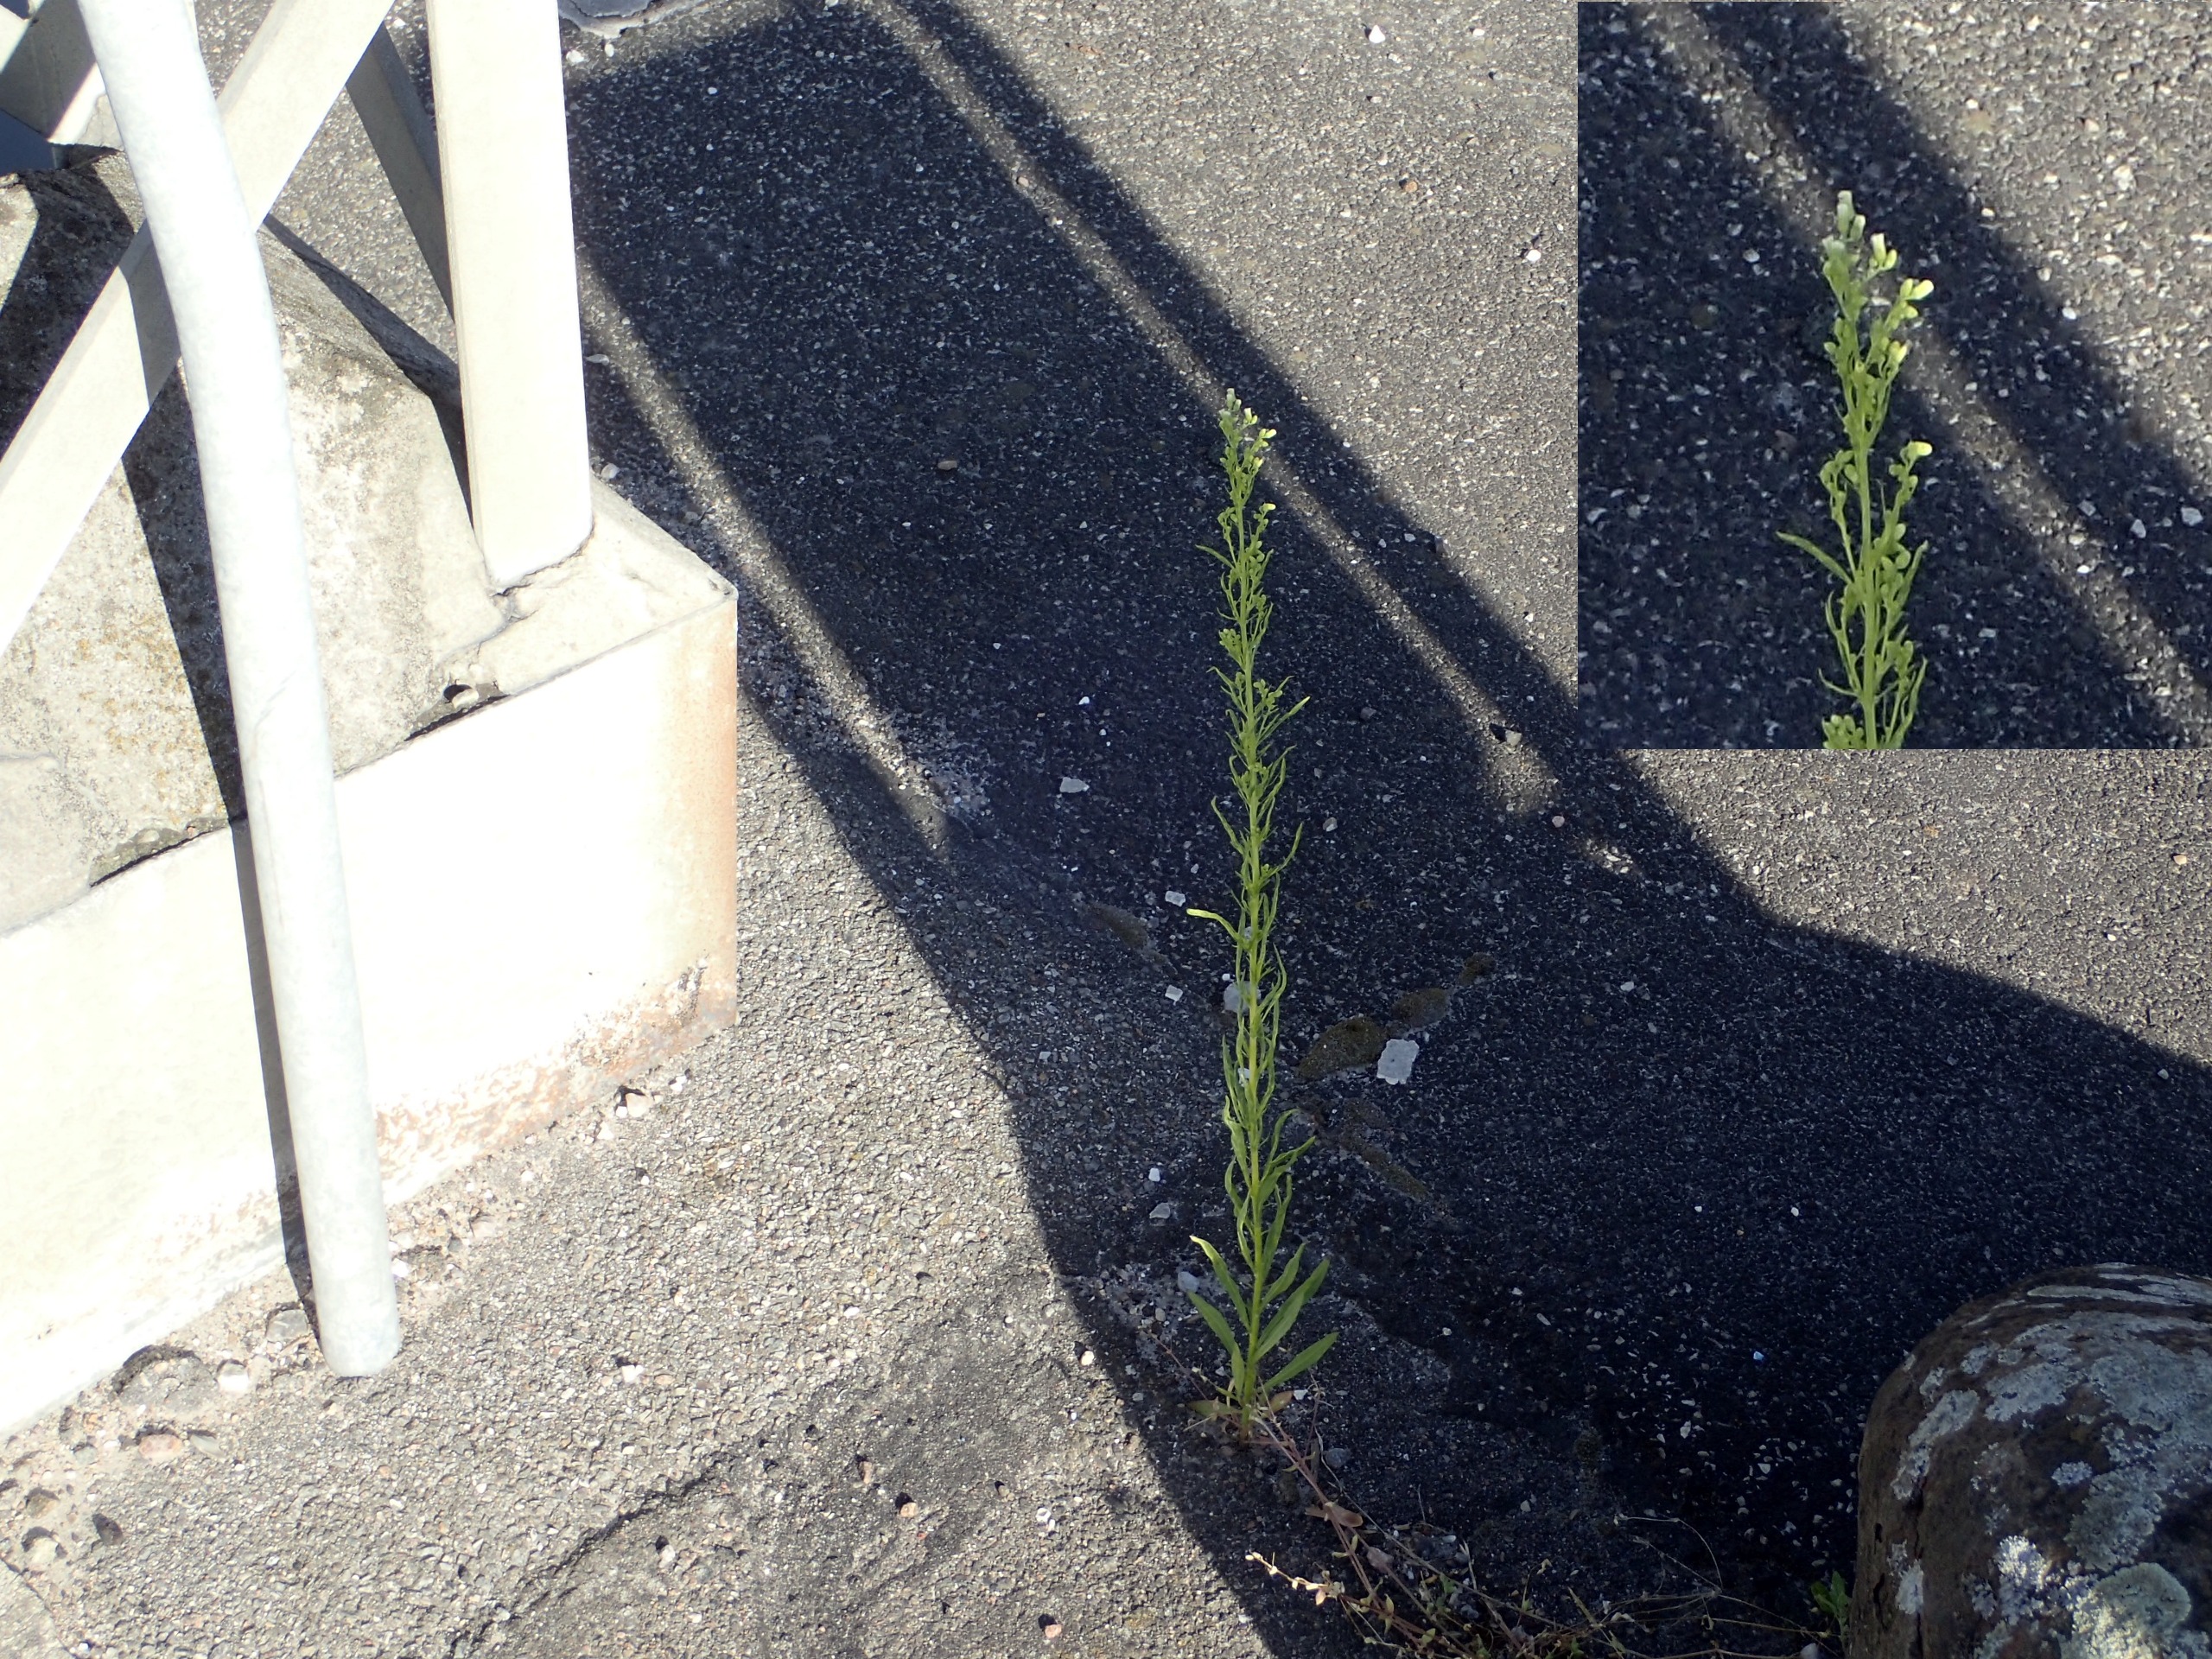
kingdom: Plantae
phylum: Tracheophyta
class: Magnoliopsida
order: Asterales
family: Asteraceae
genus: Erigeron
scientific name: Erigeron canadensis
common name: Kanadisk bakkestjerne
